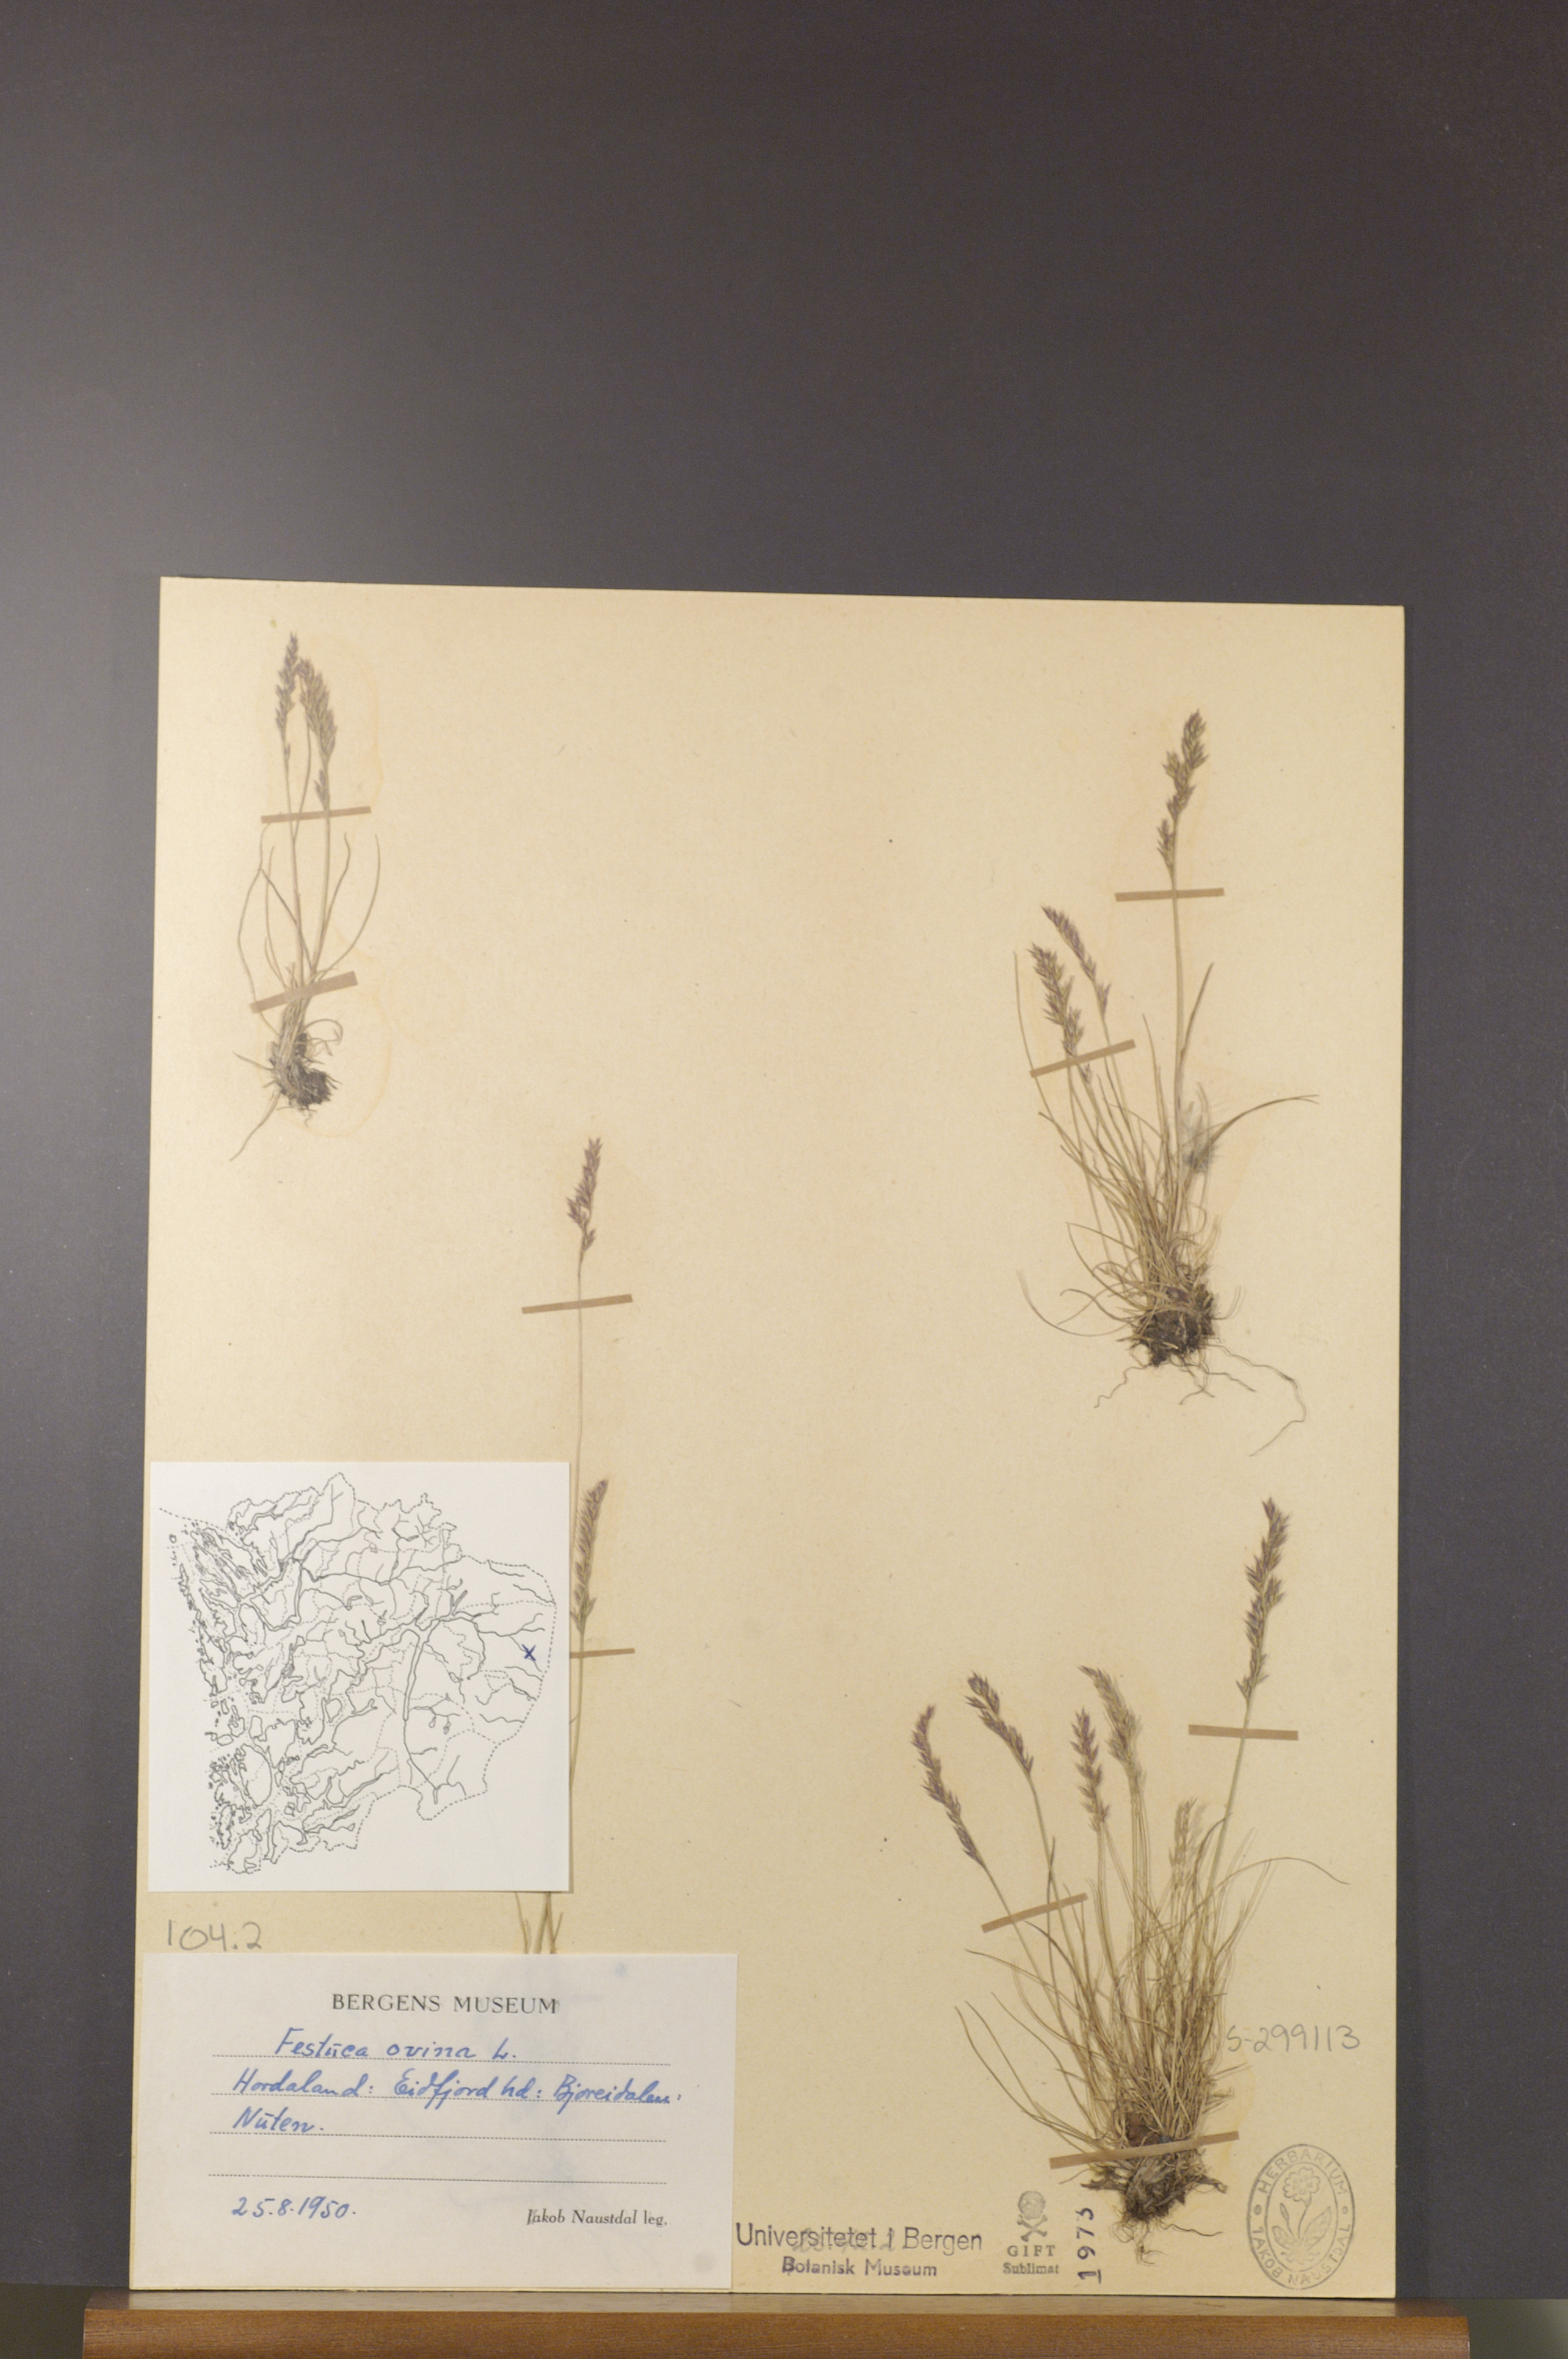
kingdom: Plantae
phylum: Tracheophyta
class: Liliopsida
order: Poales
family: Poaceae
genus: Festuca
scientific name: Festuca ovina
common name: Sheep fescue
